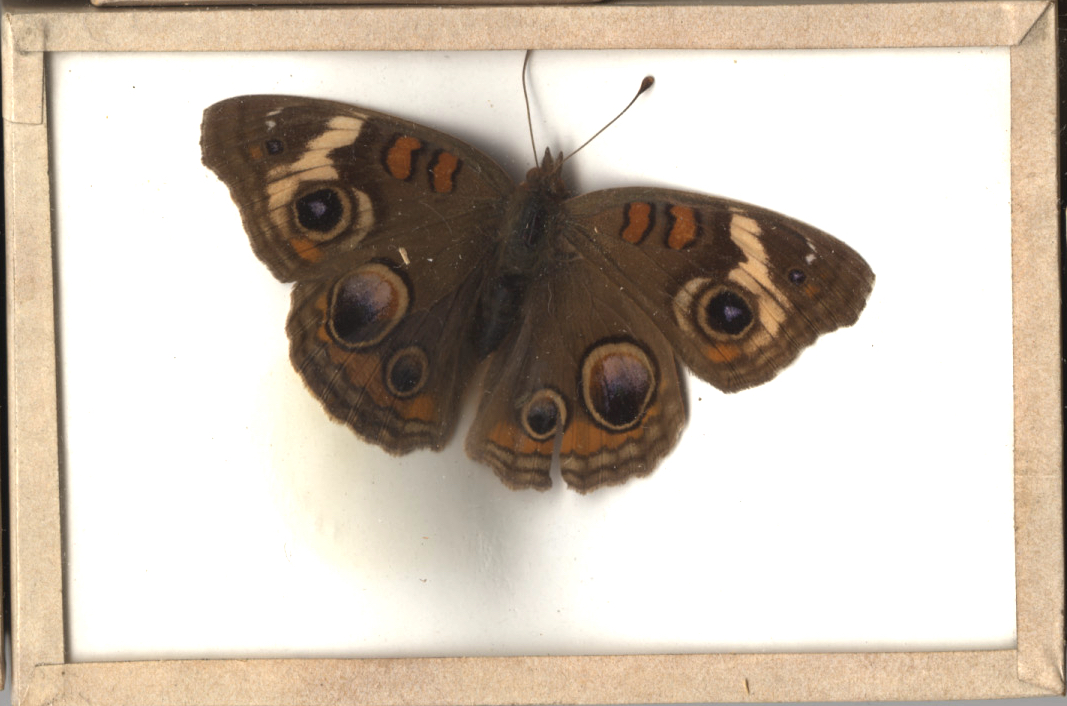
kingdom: Animalia
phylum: Arthropoda
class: Insecta
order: Lepidoptera
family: Nymphalidae
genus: Junonia
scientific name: Junonia coenia
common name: Common Buckeye
